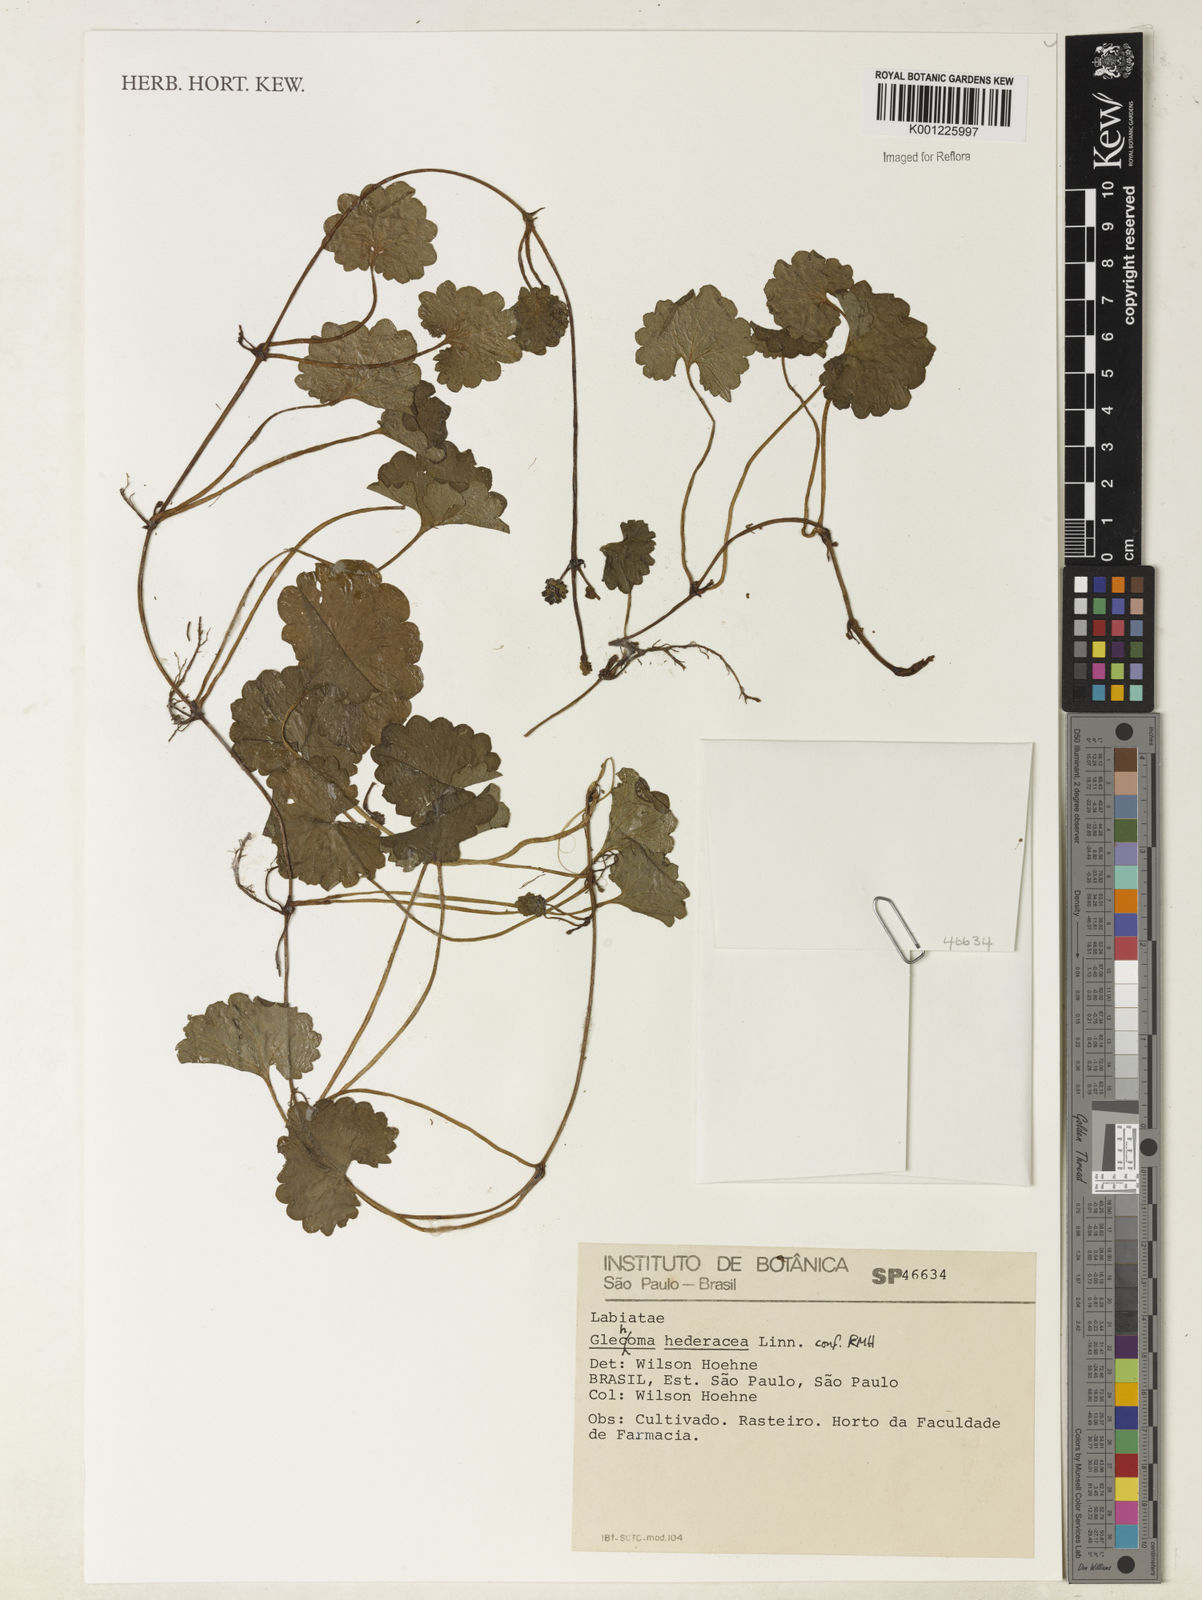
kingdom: Plantae
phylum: Tracheophyta
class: Magnoliopsida
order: Lamiales
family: Lamiaceae
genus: Glechoma
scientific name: Glechoma hederacea
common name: Ground ivy
